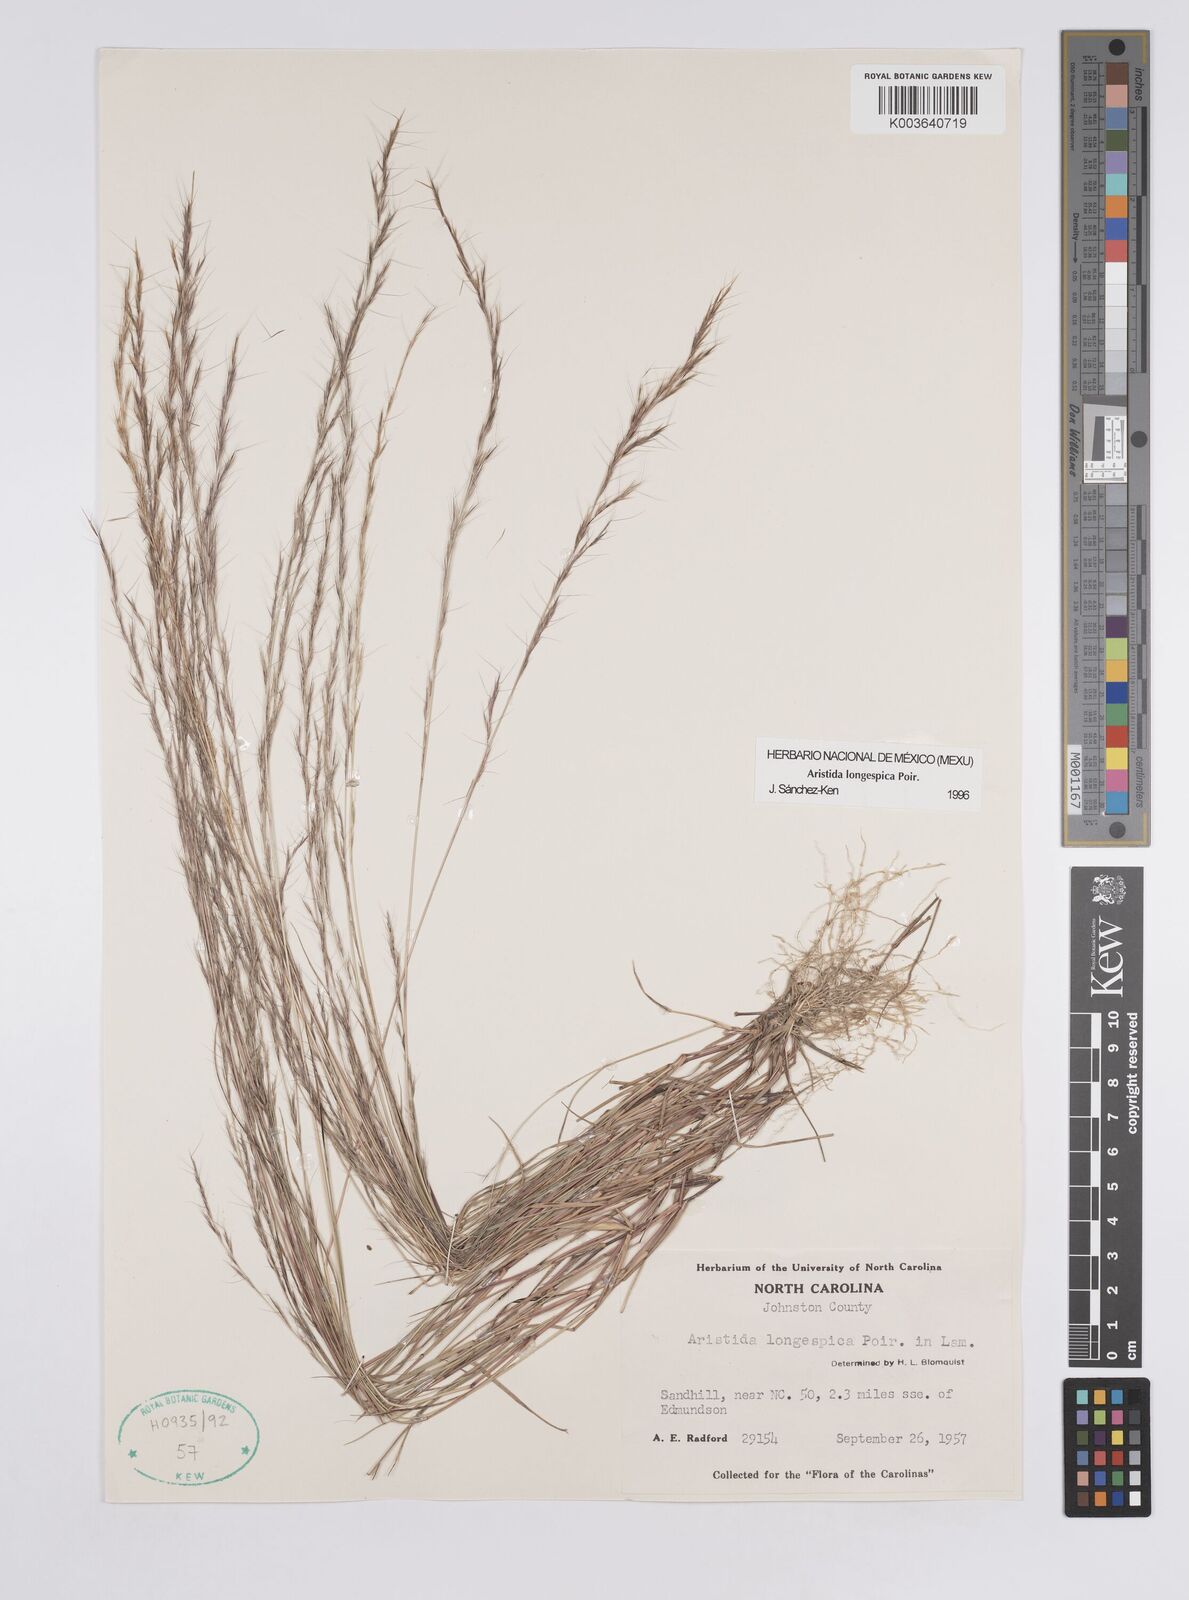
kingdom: Plantae
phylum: Tracheophyta
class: Liliopsida
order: Poales
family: Poaceae
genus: Aristida
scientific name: Aristida longespica
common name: Long-spiked triple-awned grass
